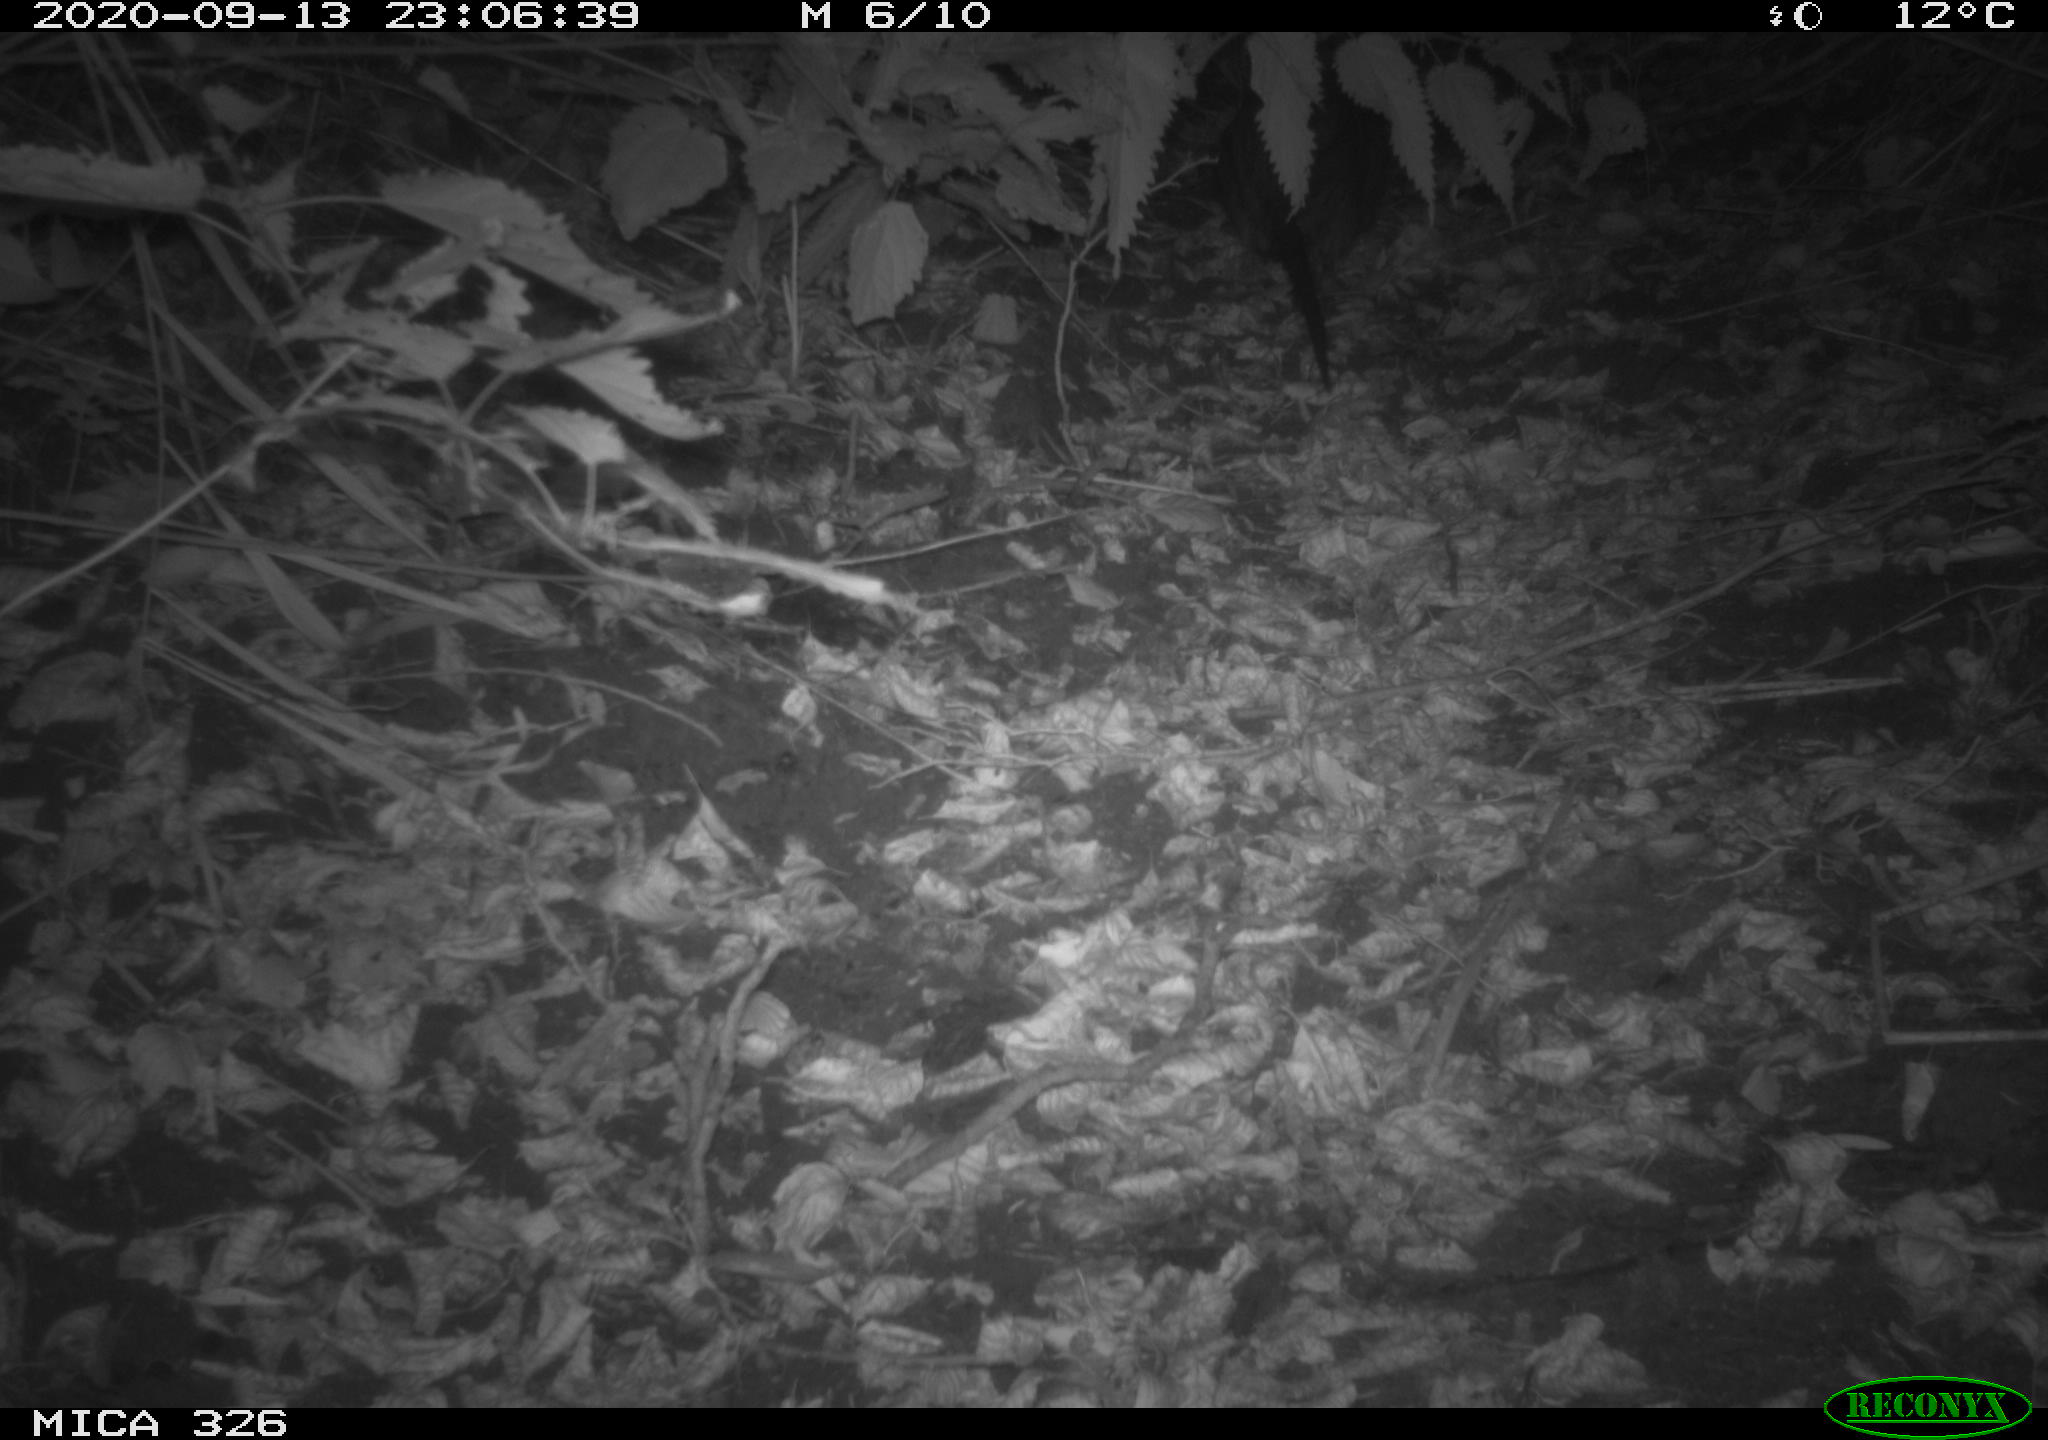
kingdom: Animalia
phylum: Chordata
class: Mammalia
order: Rodentia
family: Myocastoridae
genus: Myocastor
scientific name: Myocastor coypus
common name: Coypu
